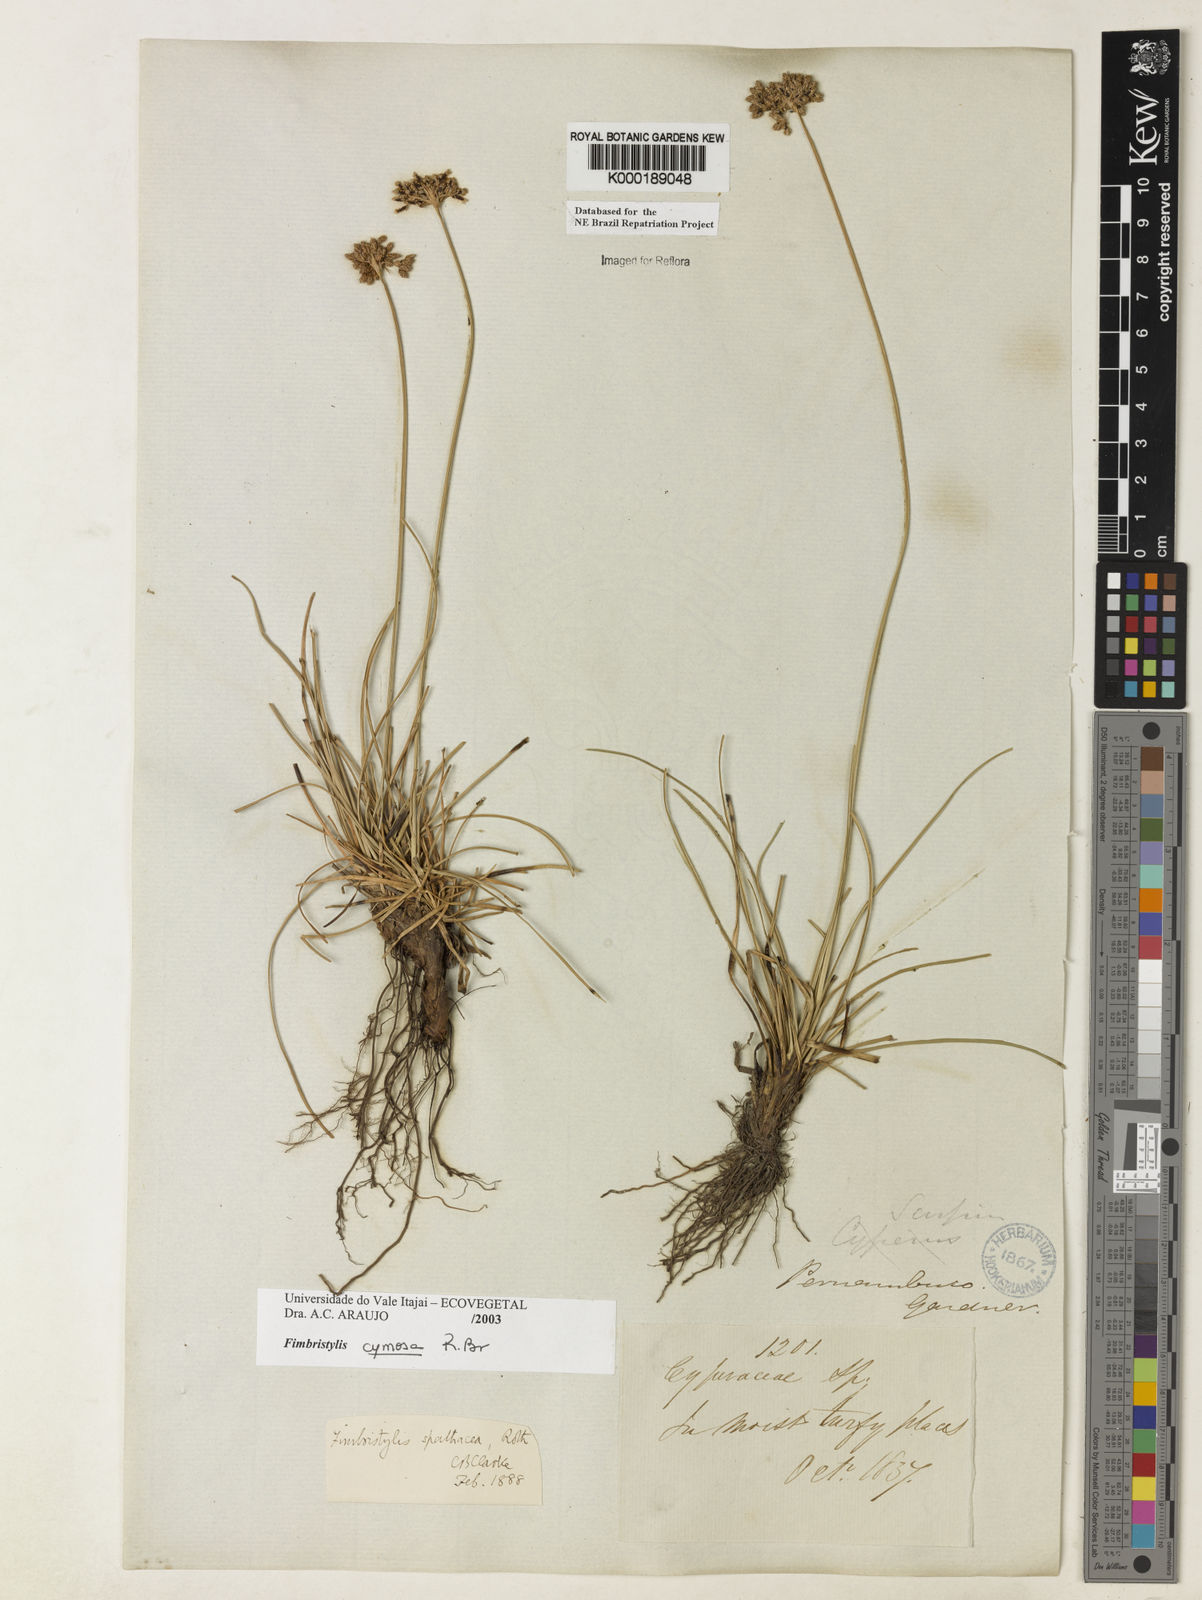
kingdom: Plantae
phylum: Tracheophyta
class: Liliopsida
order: Poales
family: Cyperaceae
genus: Fimbristylis
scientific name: Fimbristylis cymosa
